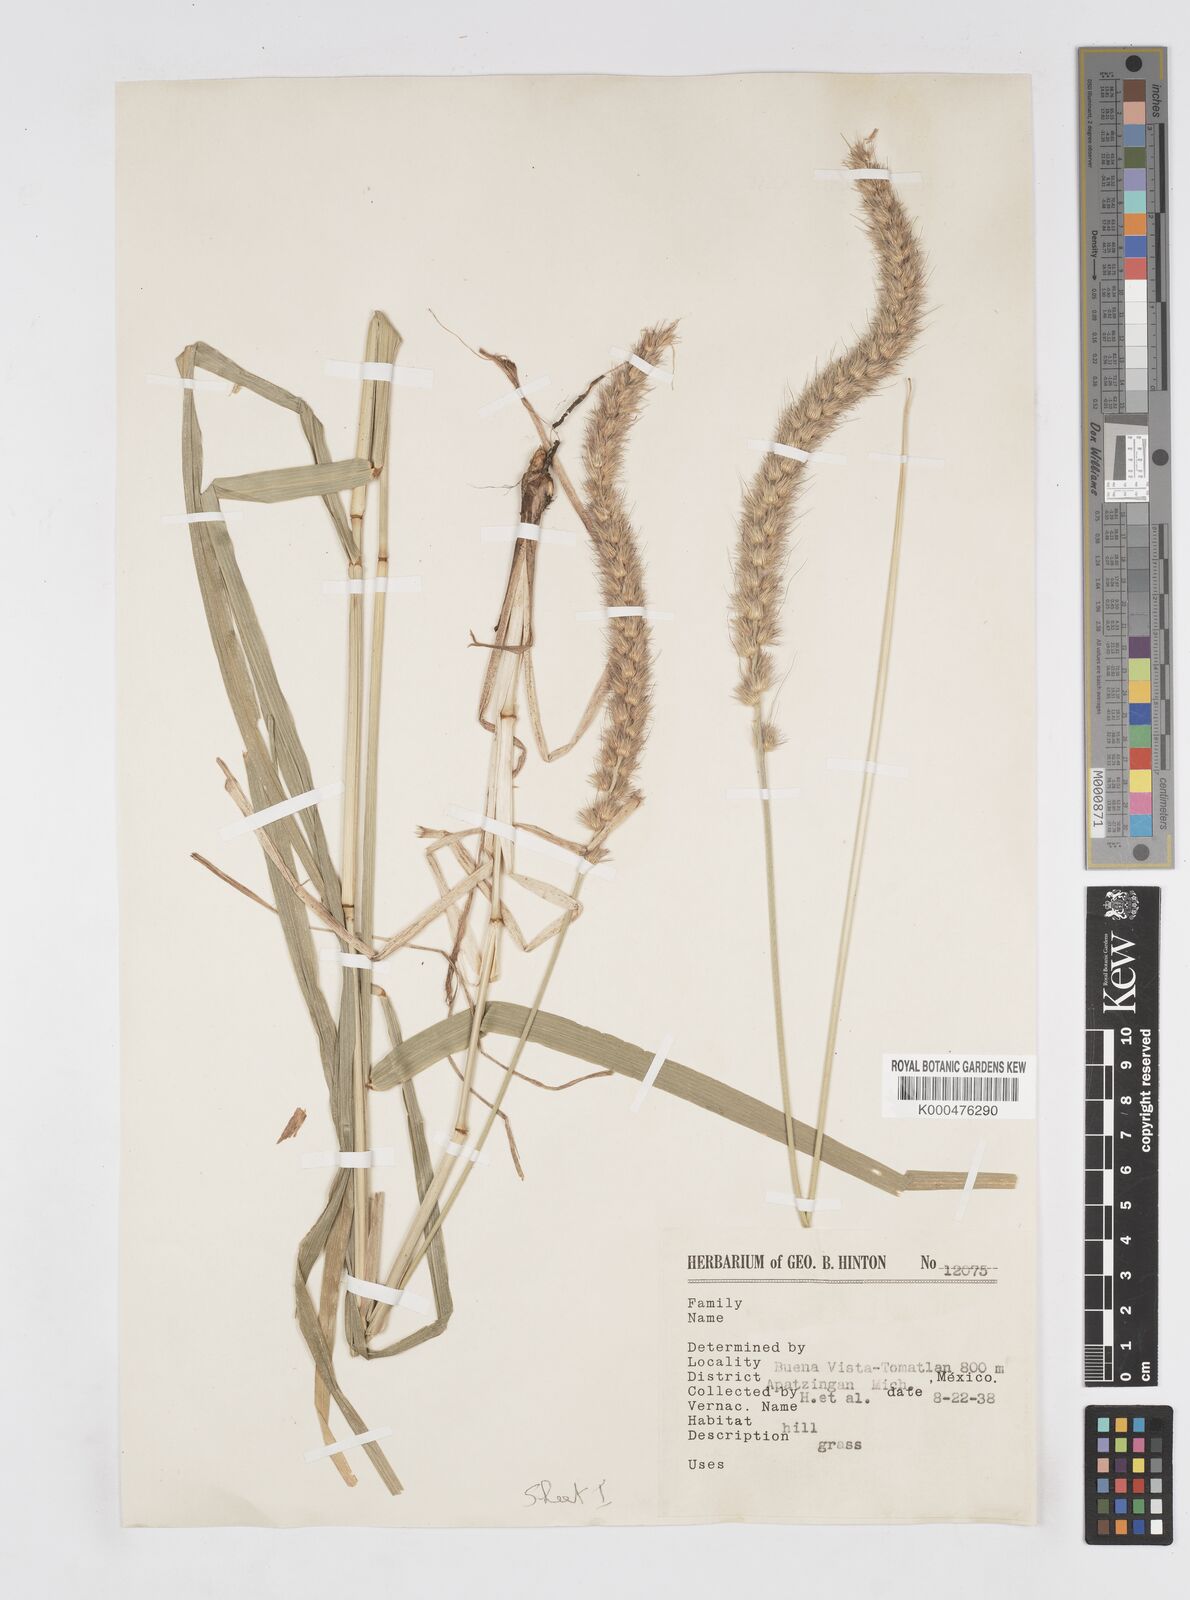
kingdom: Plantae
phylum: Tracheophyta
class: Liliopsida
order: Poales
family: Poaceae
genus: Cenchrus
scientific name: Cenchrus multiflorus
